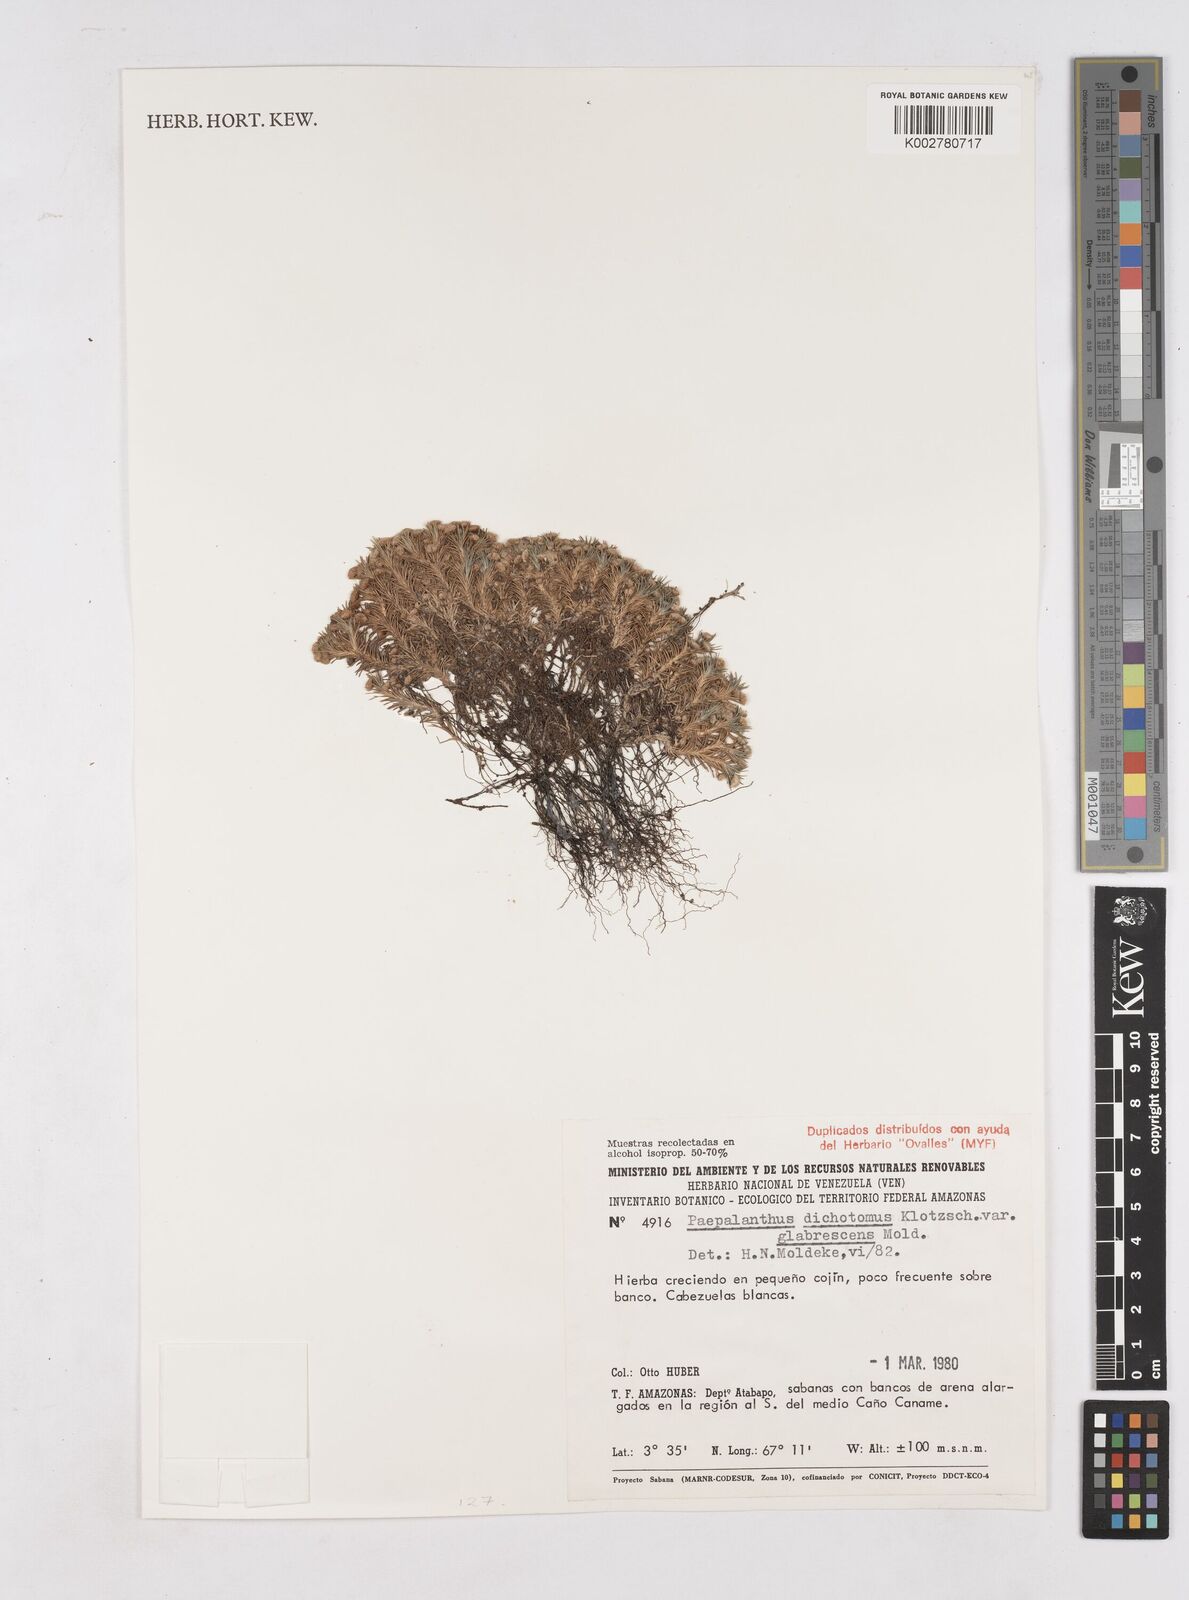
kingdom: Plantae
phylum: Tracheophyta
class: Liliopsida
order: Poales
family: Eriocaulaceae
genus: Paepalanthus
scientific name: Paepalanthus dichotomus
